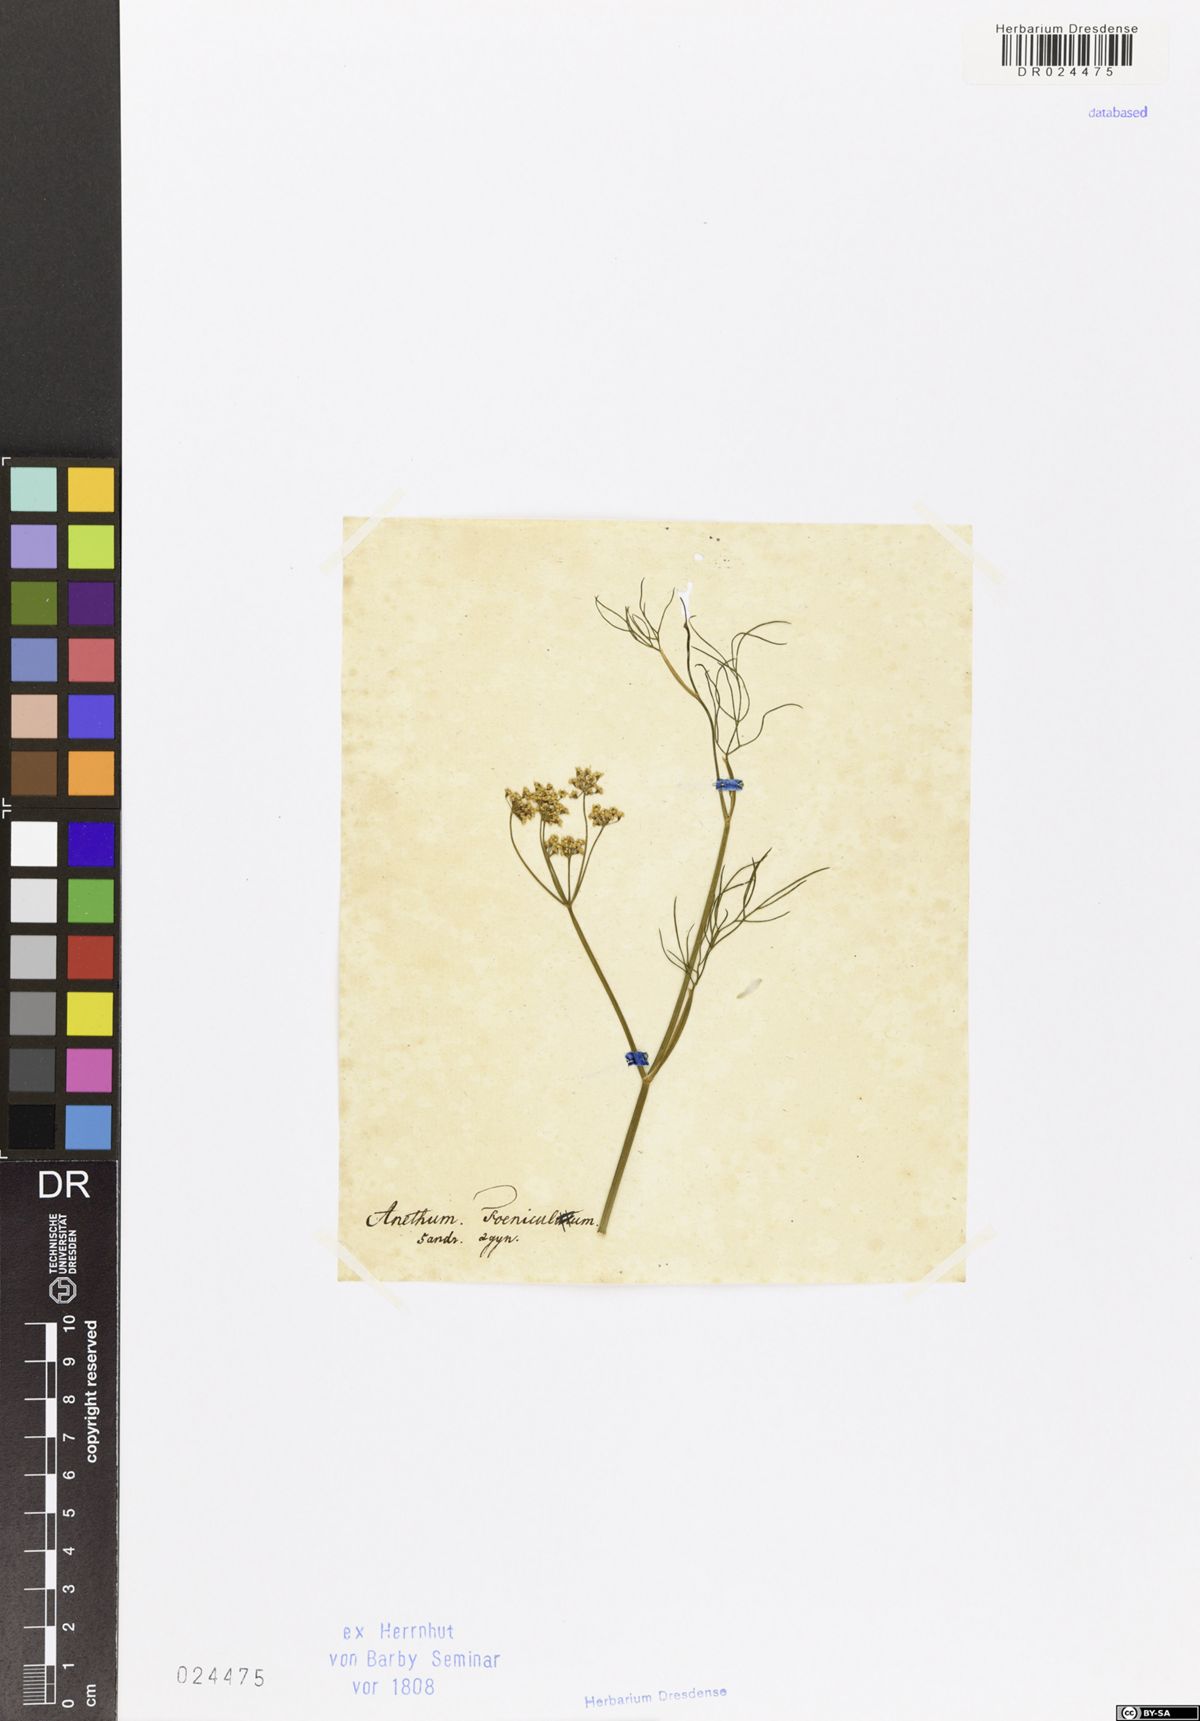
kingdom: Plantae
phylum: Tracheophyta
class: Magnoliopsida
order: Apiales
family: Apiaceae
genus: Foeniculum
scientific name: Foeniculum vulgare
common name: Fennel
